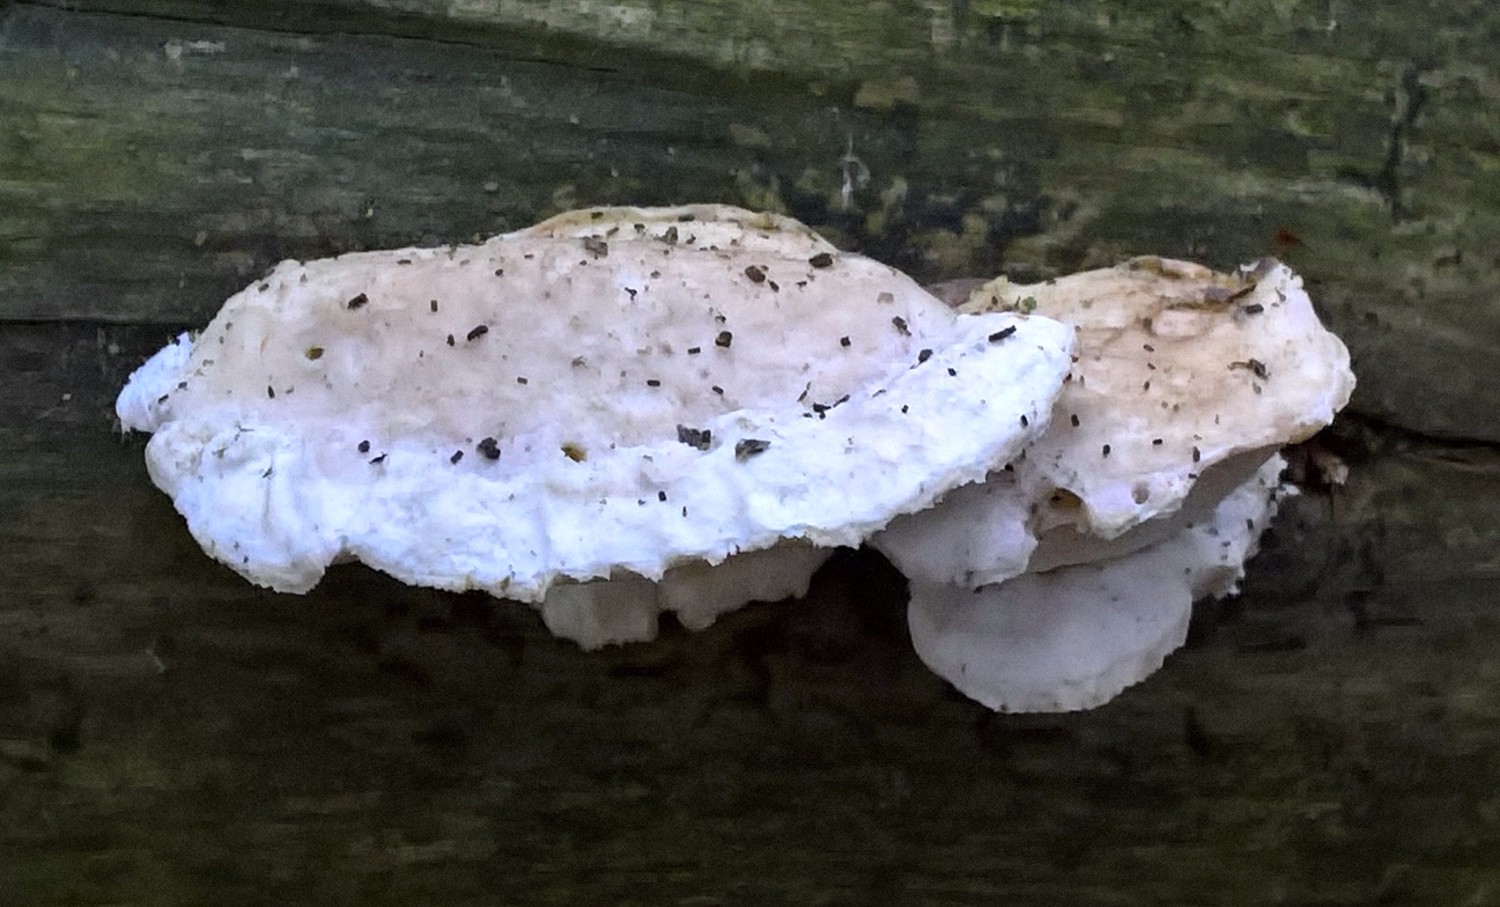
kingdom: Fungi
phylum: Basidiomycota
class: Agaricomycetes
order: Polyporales
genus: Amaropostia
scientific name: Amaropostia stiptica
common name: bitter kødporesvamp
